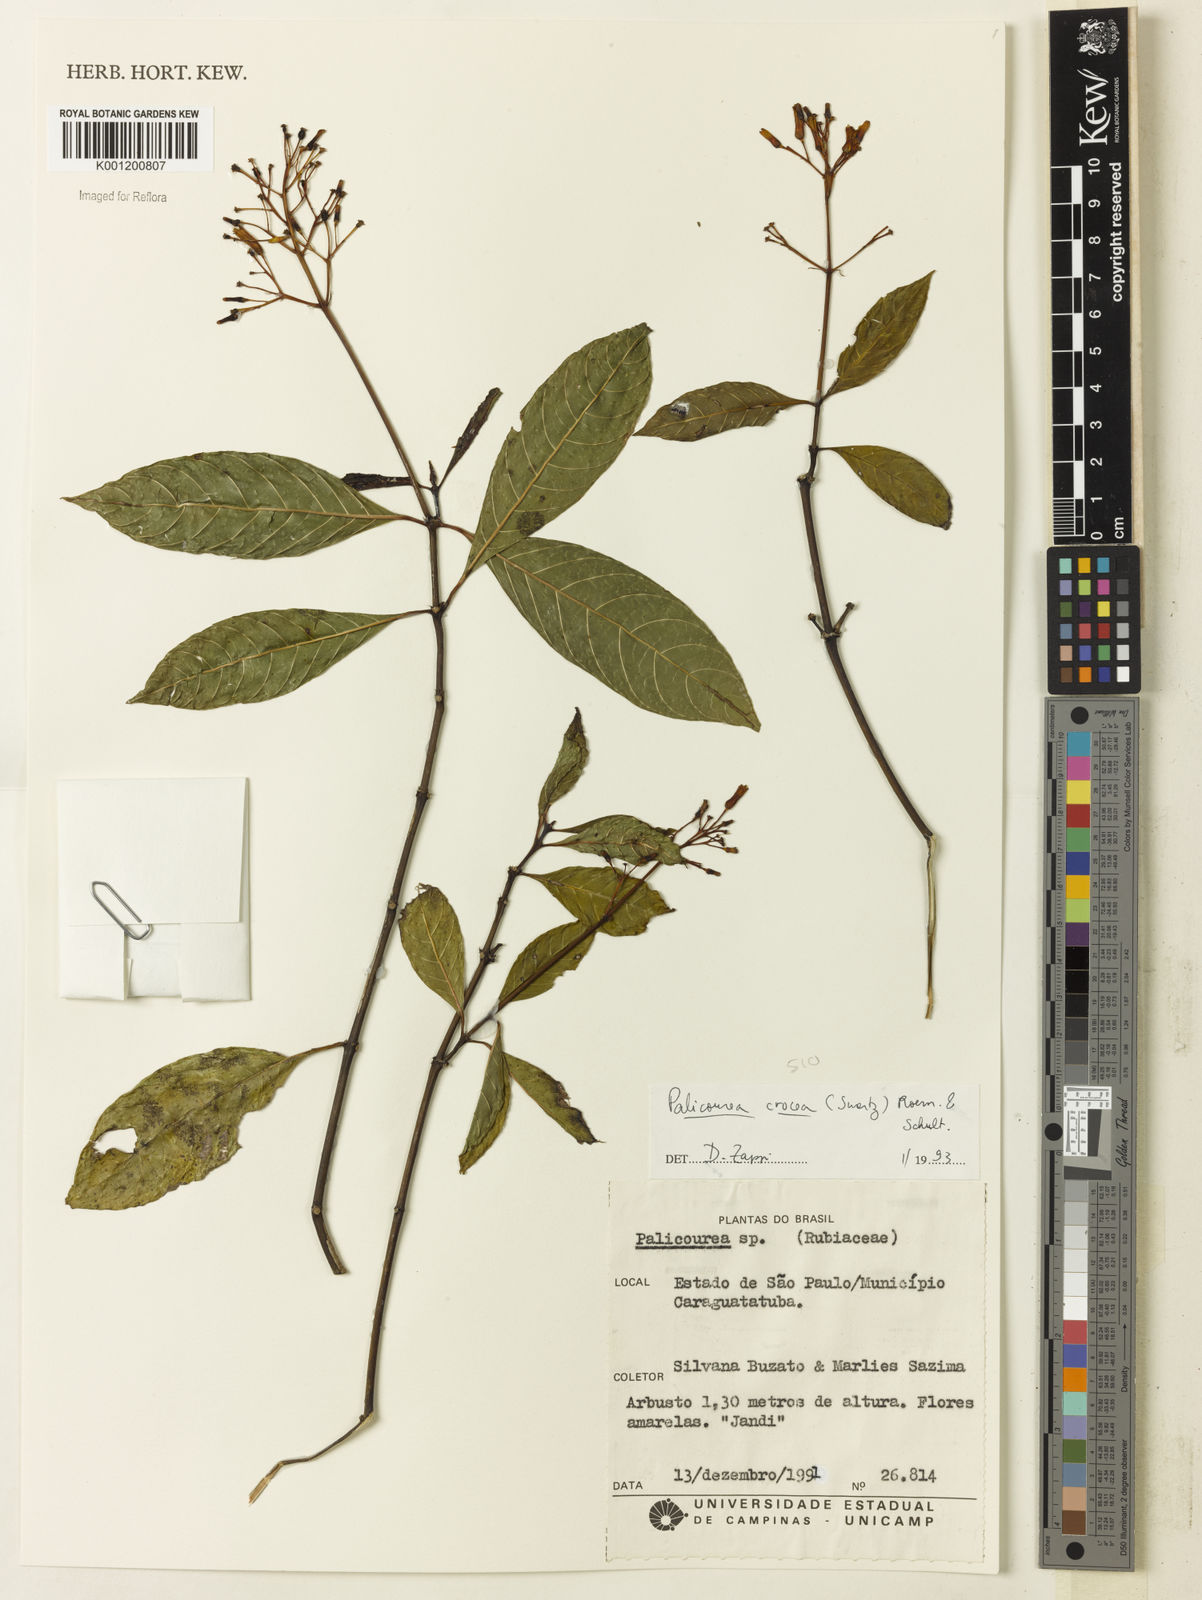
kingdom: Plantae
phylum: Tracheophyta
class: Magnoliopsida
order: Gentianales
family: Rubiaceae
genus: Palicourea
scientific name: Palicourea crocea
